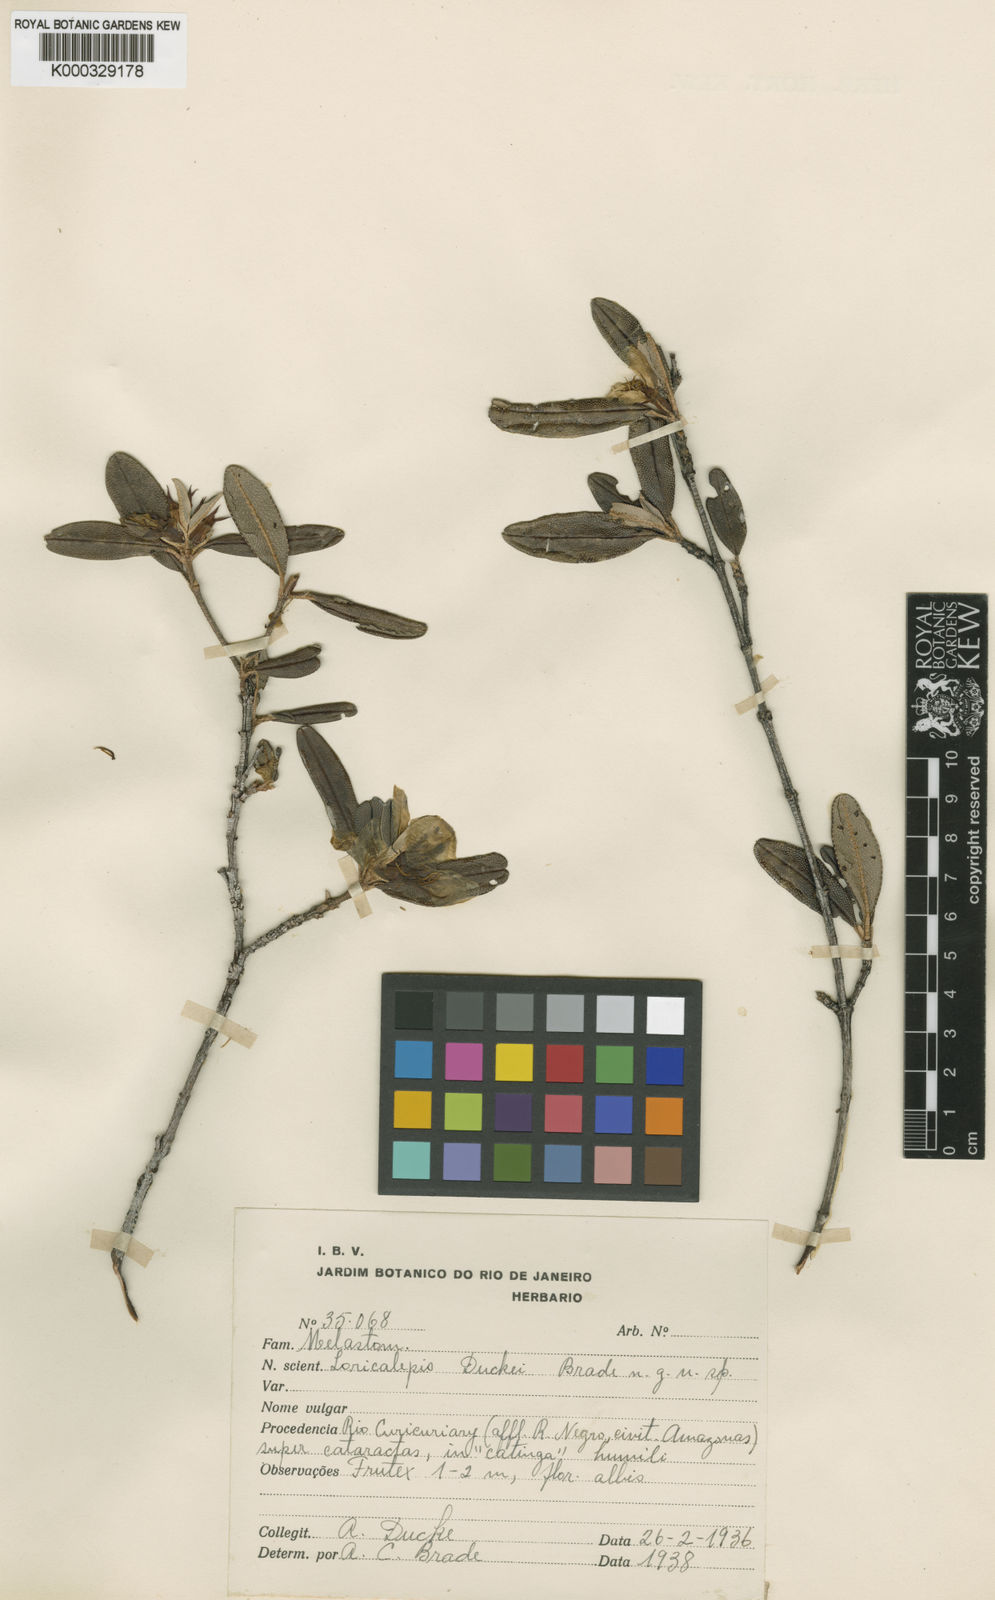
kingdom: Plantae
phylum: Tracheophyta
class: Magnoliopsida
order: Myrtales
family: Melastomataceae
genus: Loricalepis
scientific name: Loricalepis duckei
